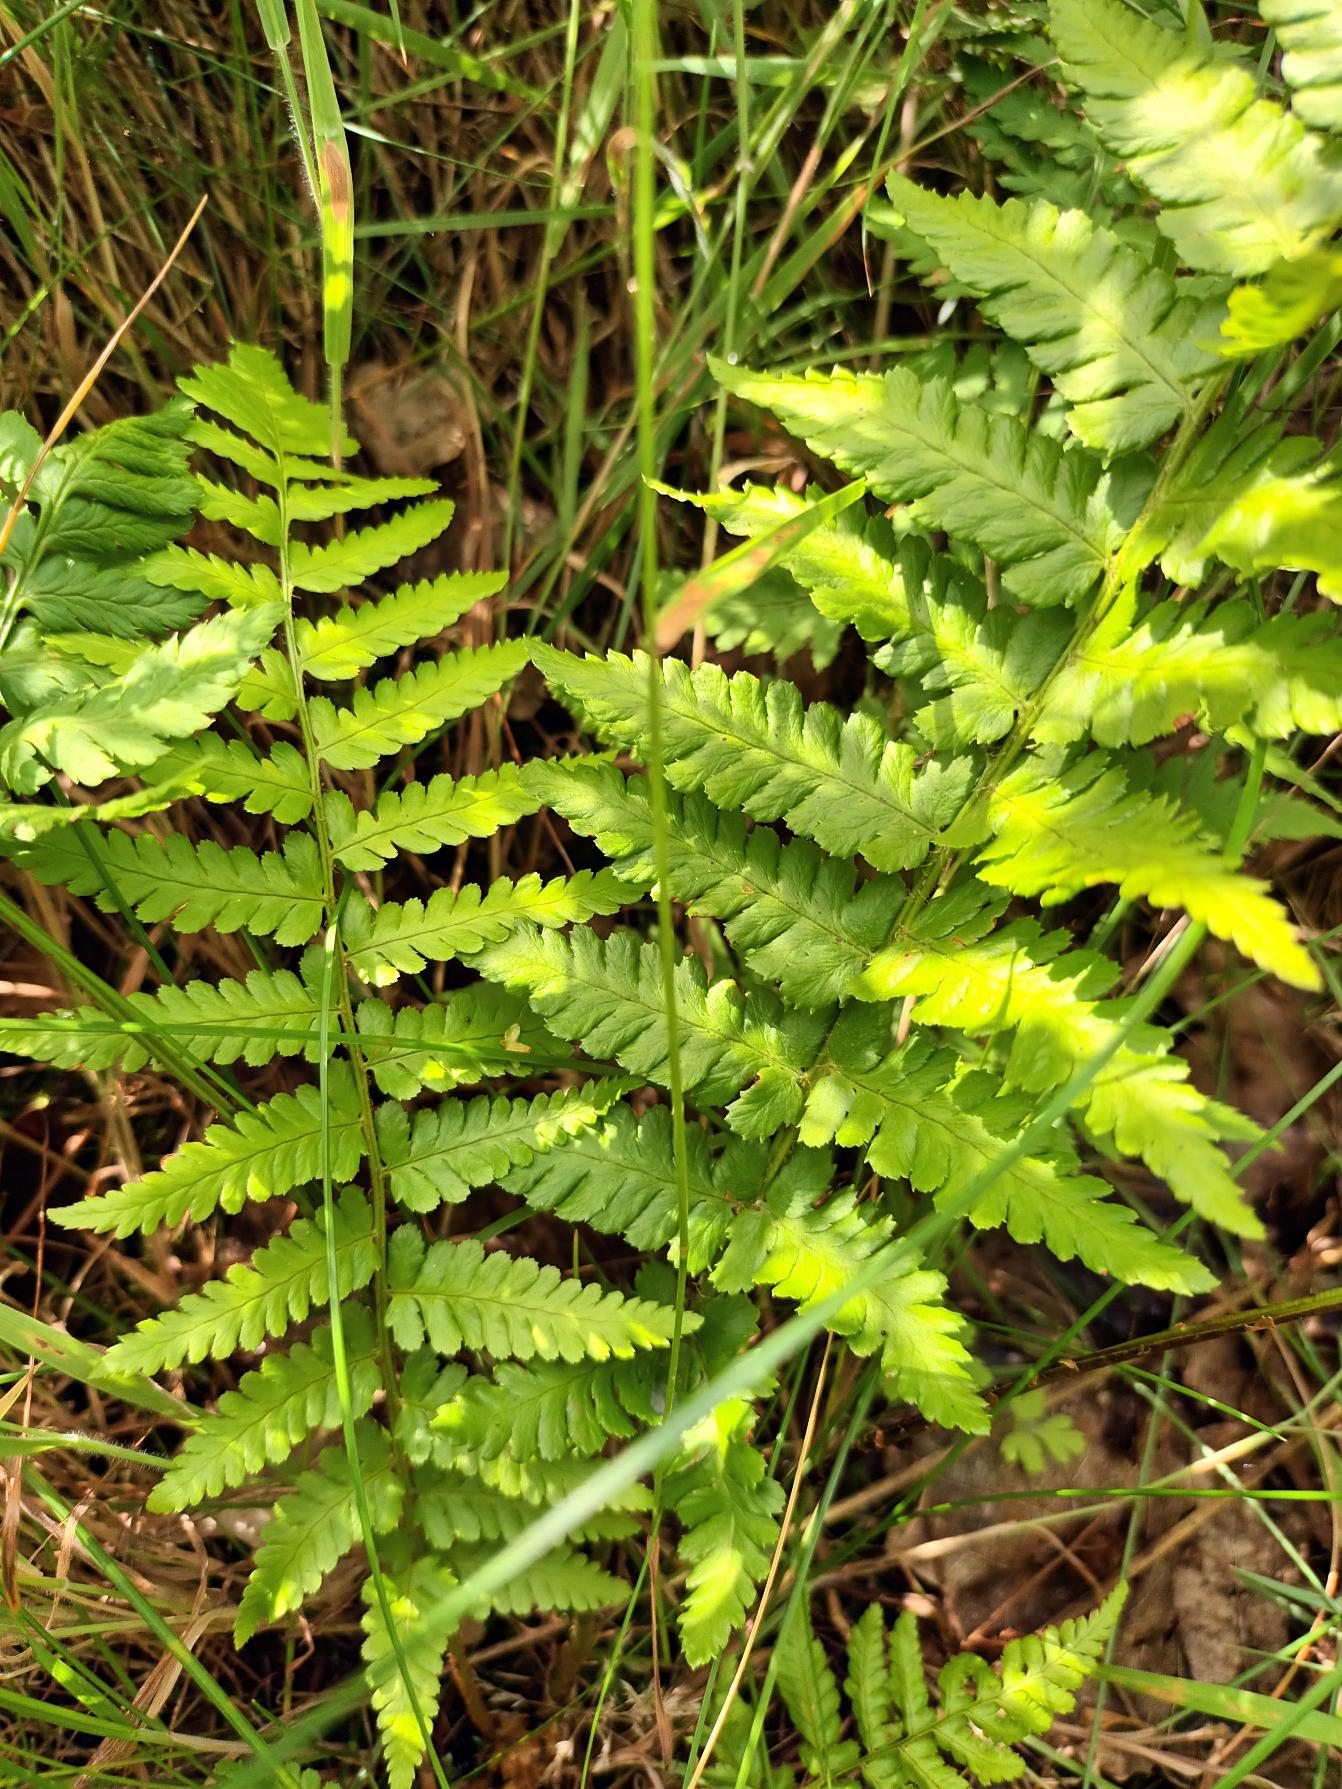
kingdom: Plantae
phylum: Tracheophyta
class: Polypodiopsida
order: Polypodiales
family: Dryopteridaceae
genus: Dryopteris
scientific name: Dryopteris carthusiana
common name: Smalbladet mangeløv
